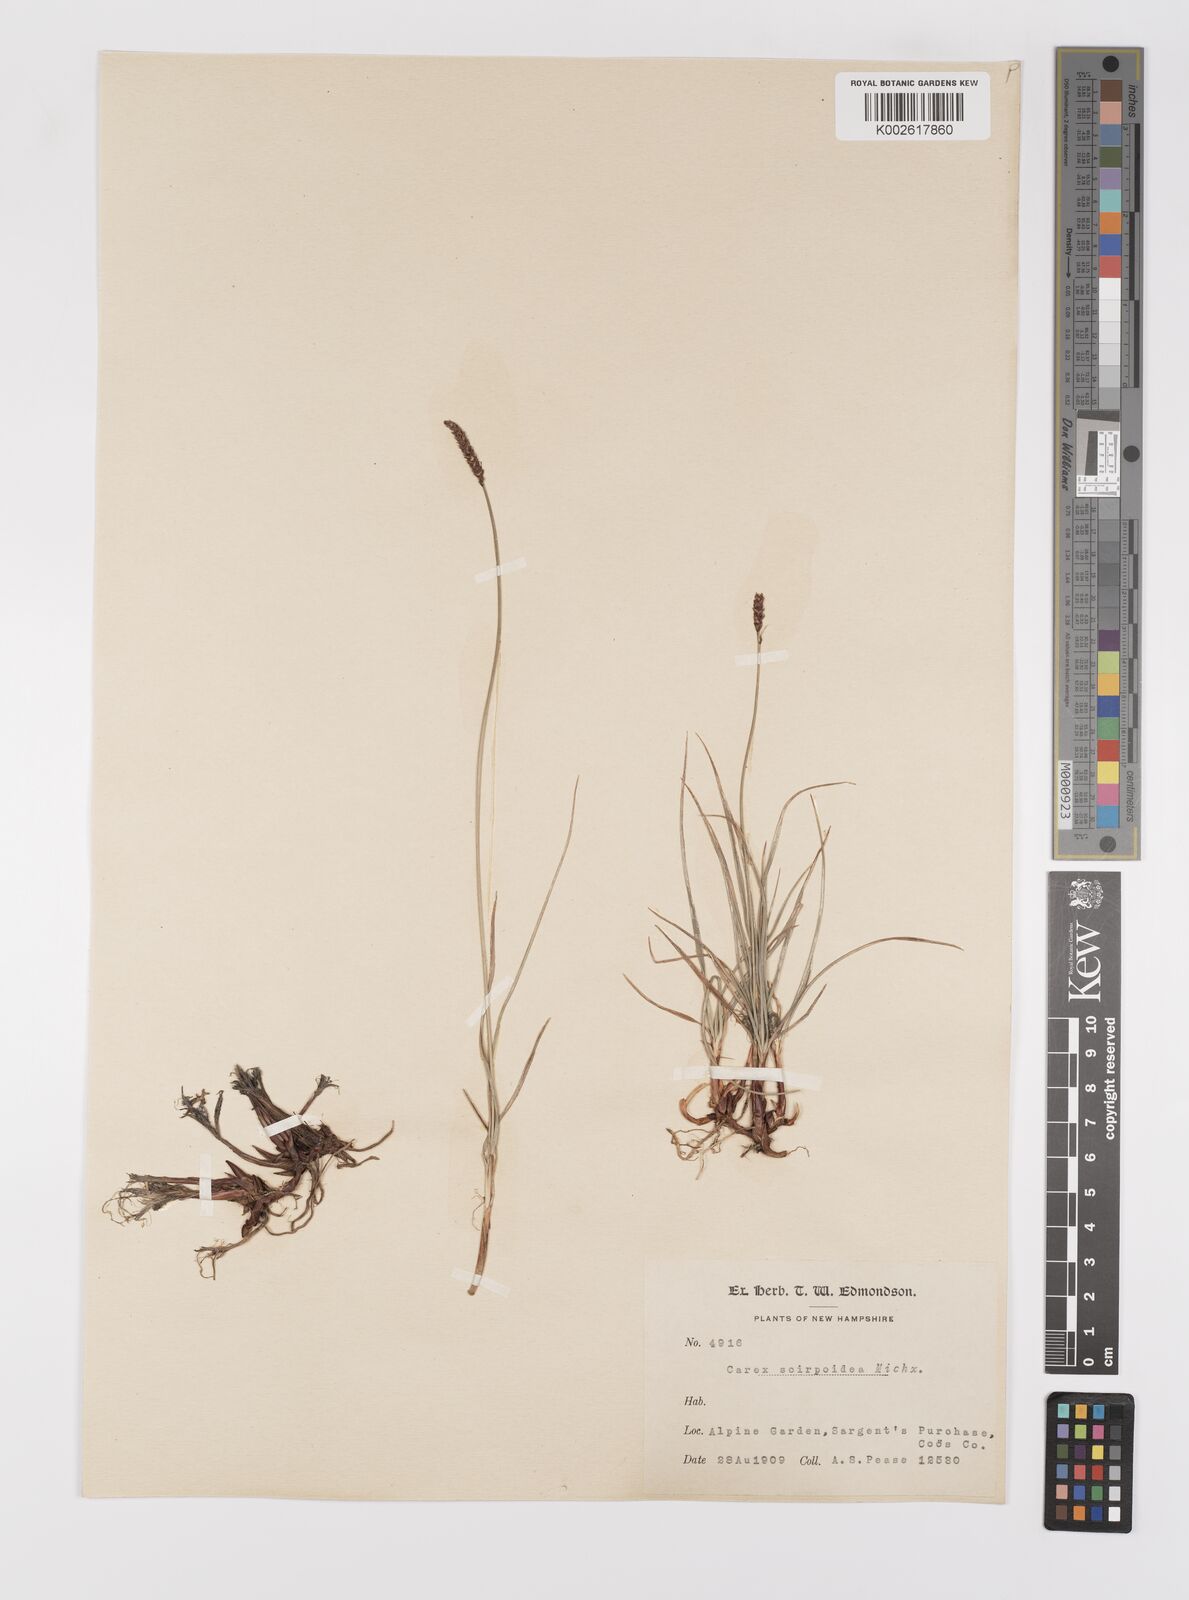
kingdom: Plantae
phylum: Tracheophyta
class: Liliopsida
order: Poales
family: Cyperaceae
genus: Carex
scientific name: Carex scirpoidea
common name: Canada single-spike sedge
